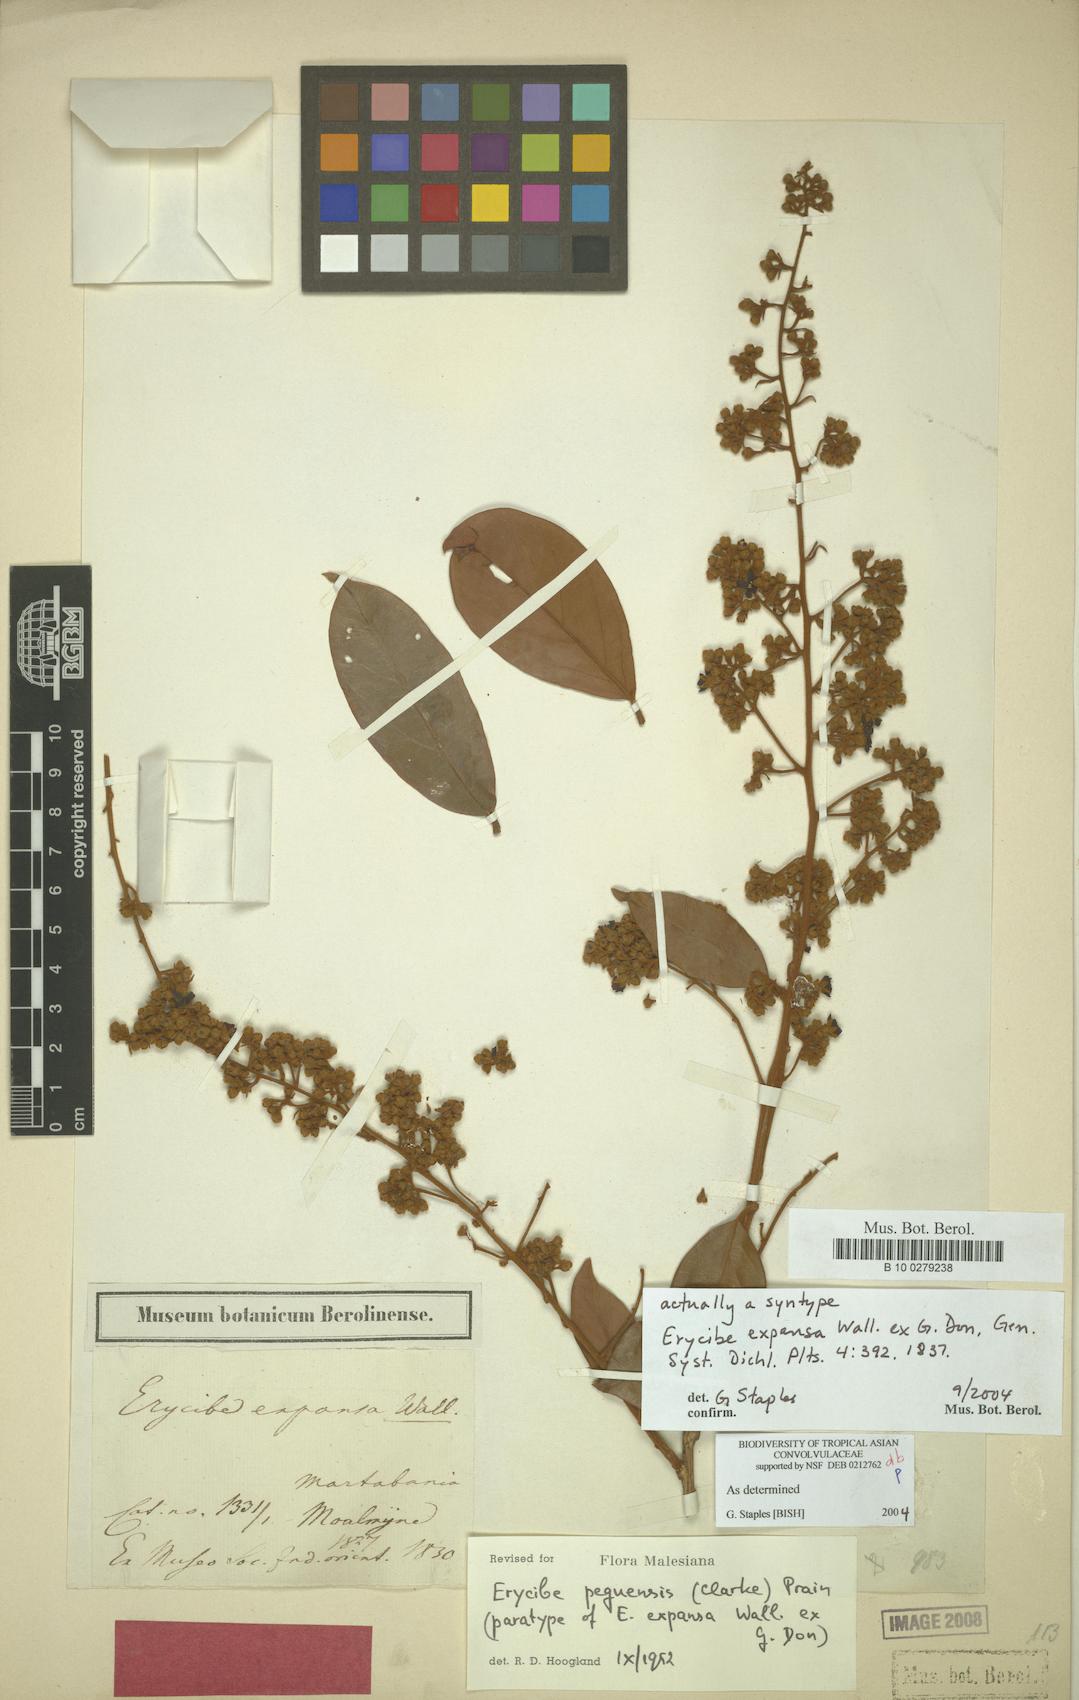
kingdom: Plantae
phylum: Tracheophyta
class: Magnoliopsida
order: Solanales
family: Convolvulaceae
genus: Argyreia
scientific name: Argyreia capitiformis
